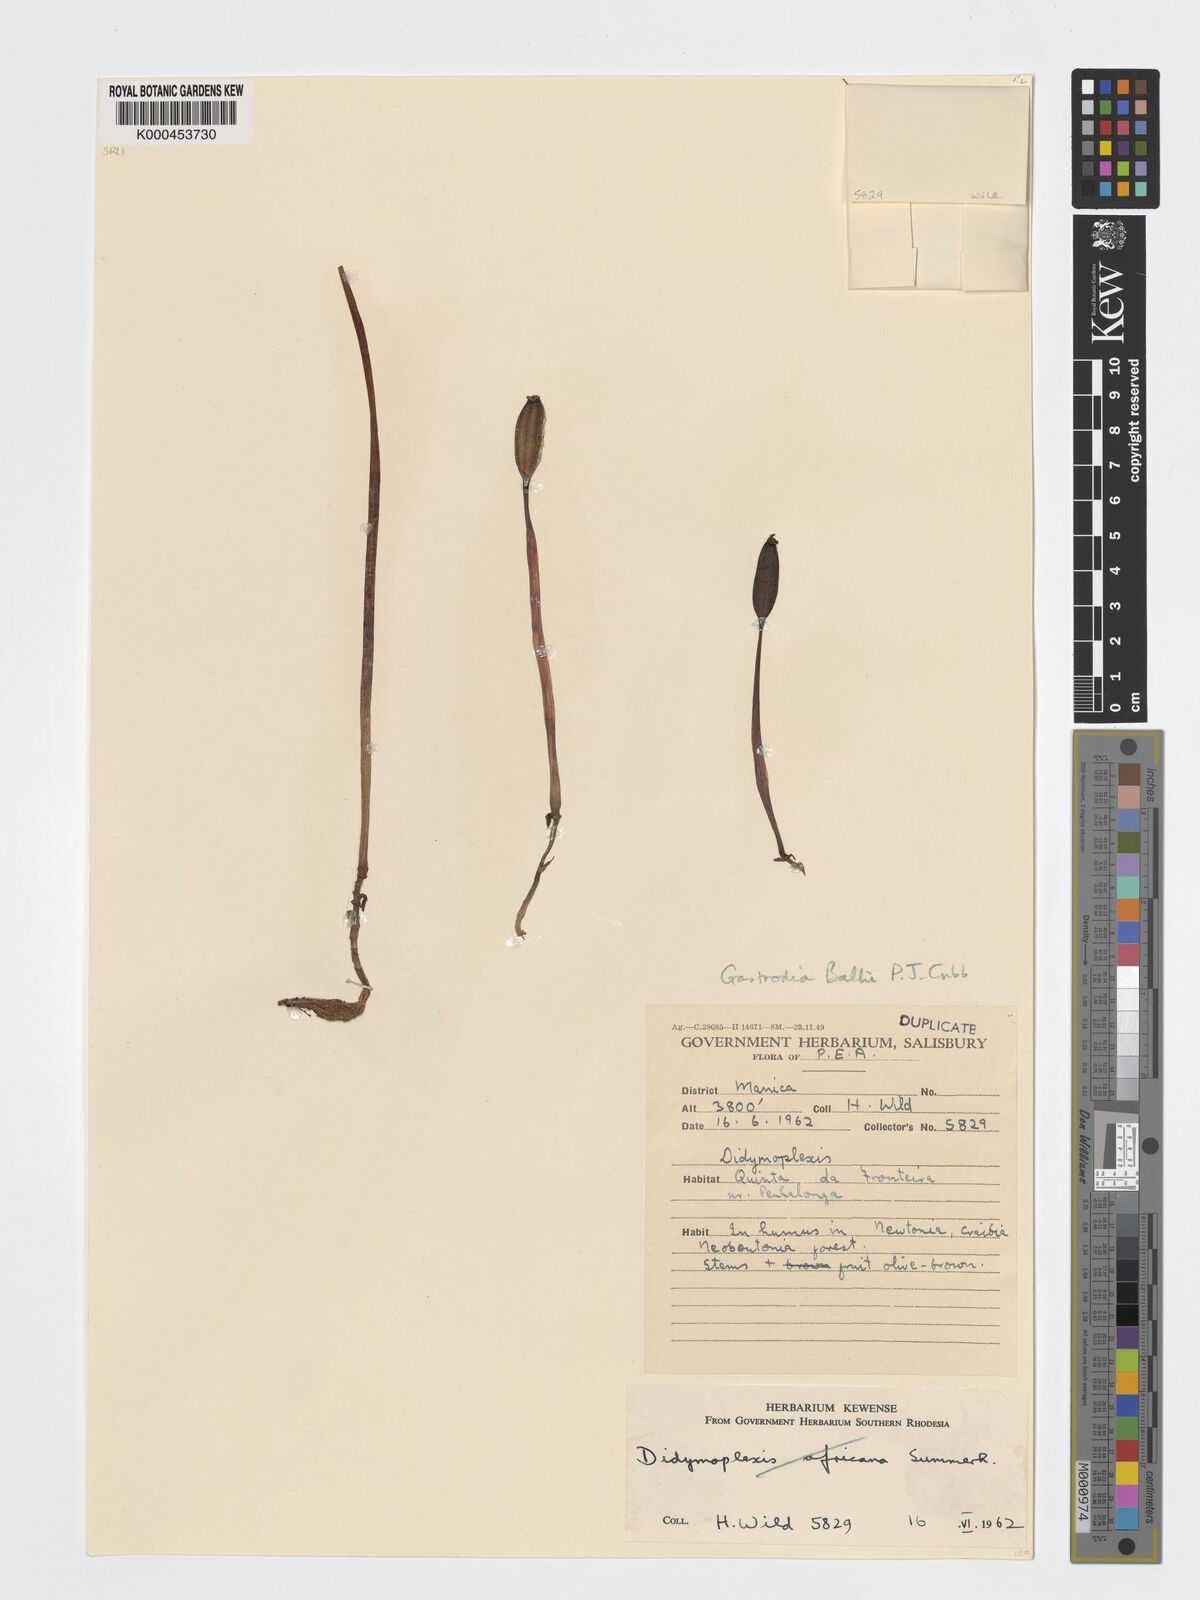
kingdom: Plantae
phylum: Tracheophyta
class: Liliopsida
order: Asparagales
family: Orchidaceae
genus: Didymoplexis
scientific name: Didymoplexis africana
